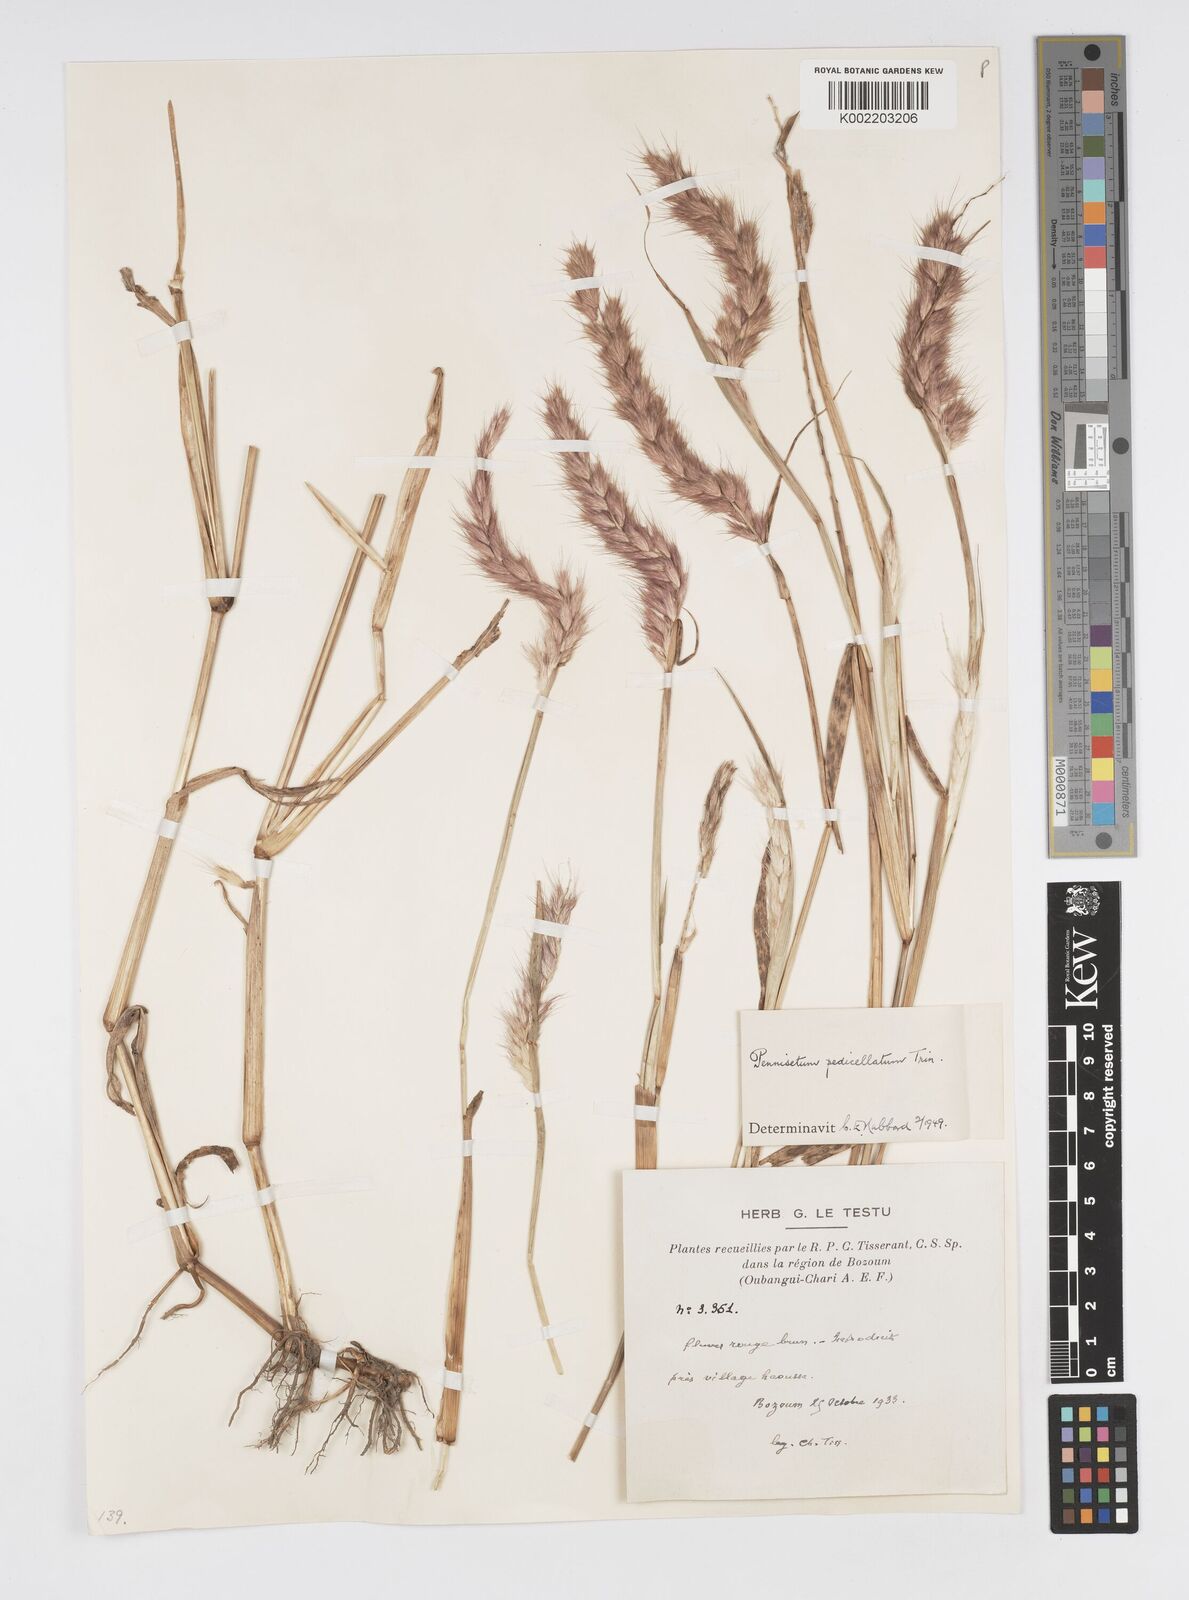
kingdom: Plantae
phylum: Tracheophyta
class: Liliopsida
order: Poales
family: Poaceae
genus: Cenchrus
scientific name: Cenchrus pedicellatus
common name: Hairy fountain grass
